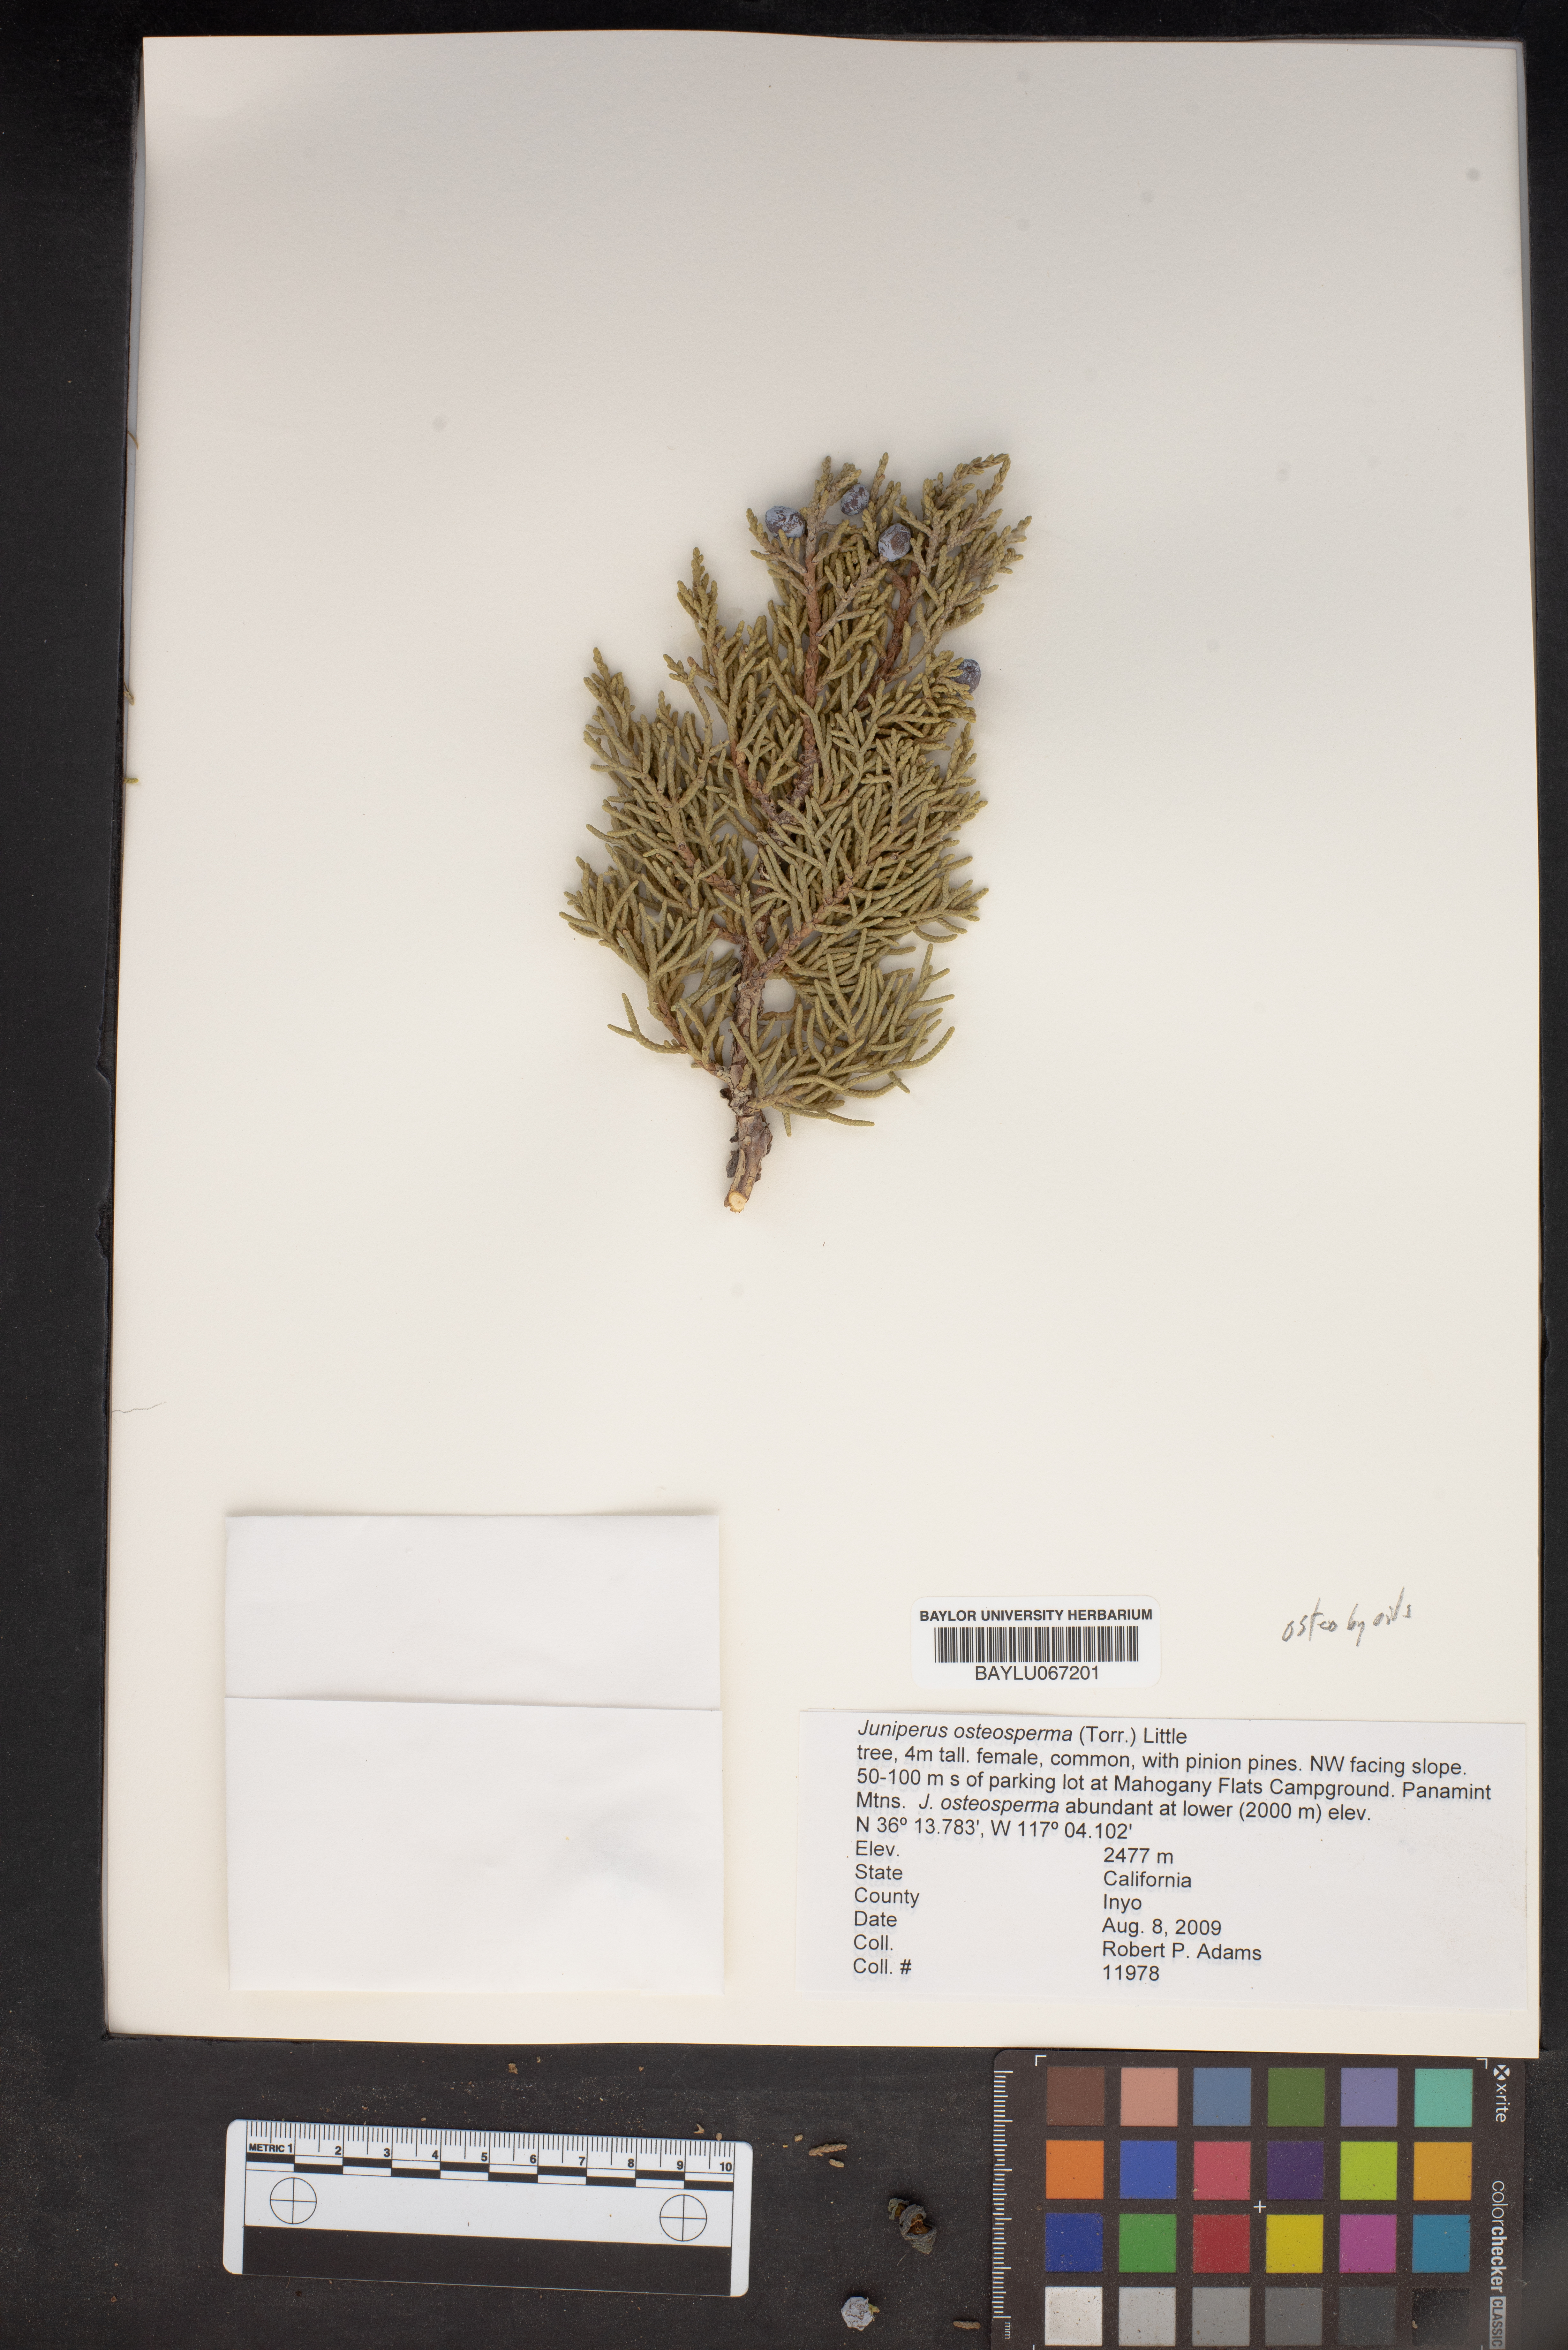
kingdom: Plantae
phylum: Tracheophyta
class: Pinopsida
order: Pinales
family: Cupressaceae
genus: Juniperus
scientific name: Juniperus osteosperma
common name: Utah juniper
